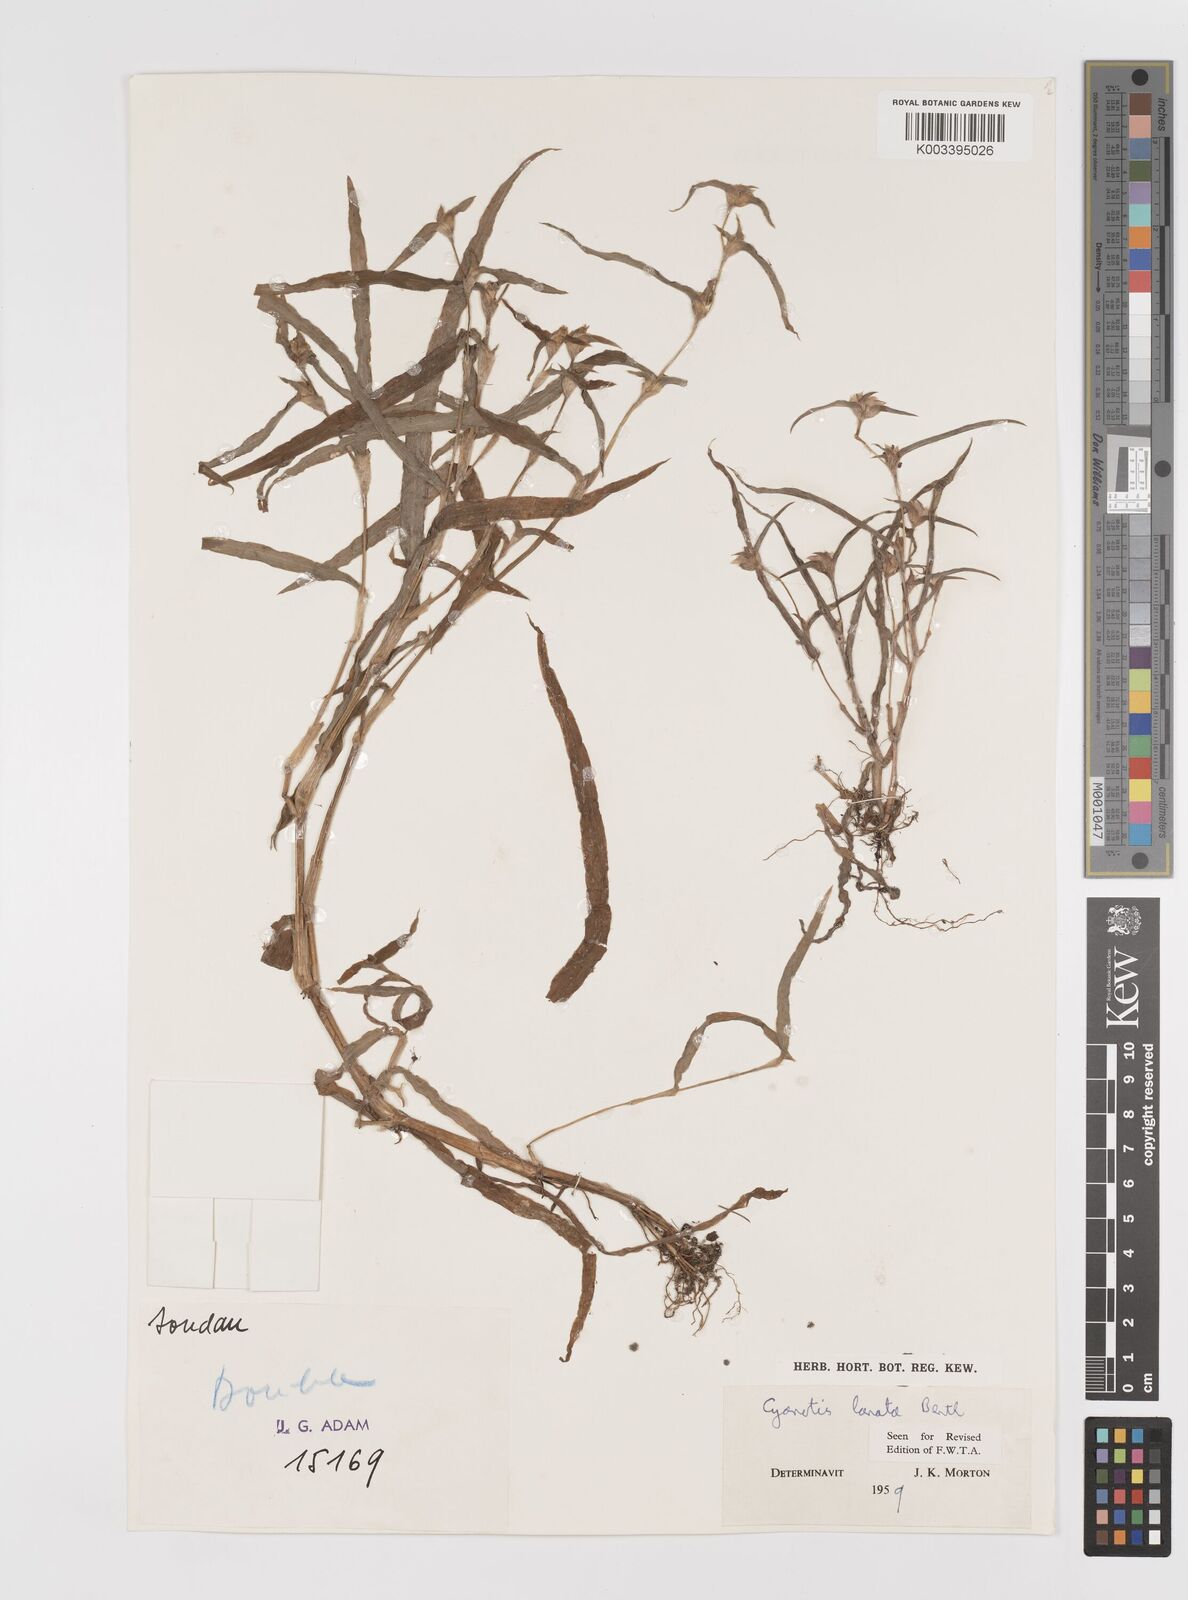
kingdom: Plantae
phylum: Tracheophyta
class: Liliopsida
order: Commelinales
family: Commelinaceae
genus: Cyanotis
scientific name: Cyanotis lanata
